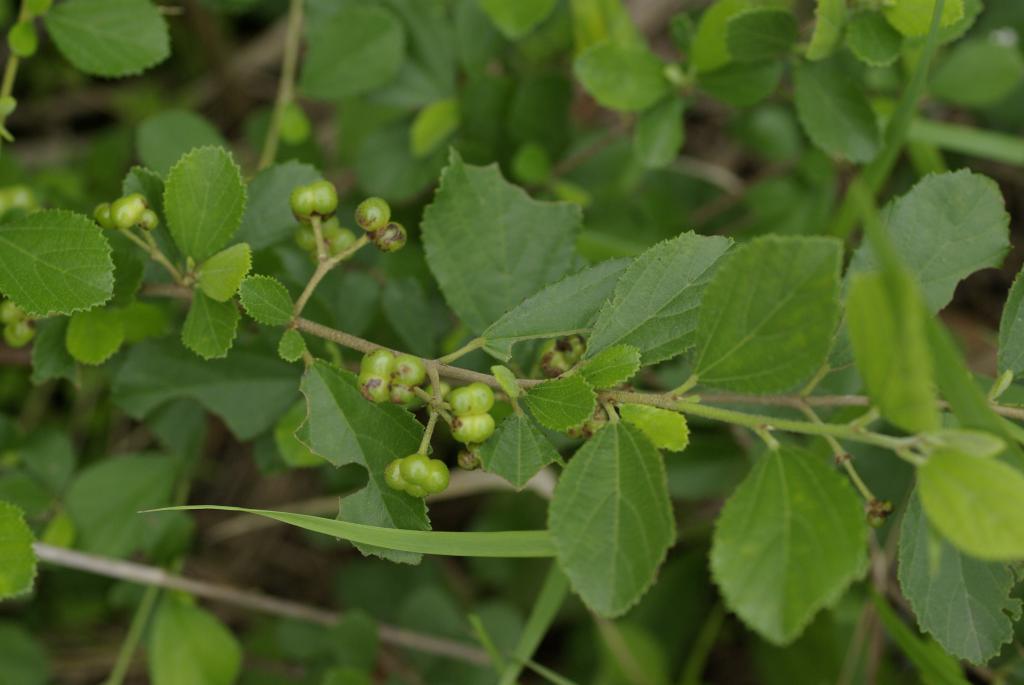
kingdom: Plantae
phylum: Tracheophyta
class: Magnoliopsida
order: Malvales
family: Malvaceae
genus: Grewia
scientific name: Grewia rhombifolia
